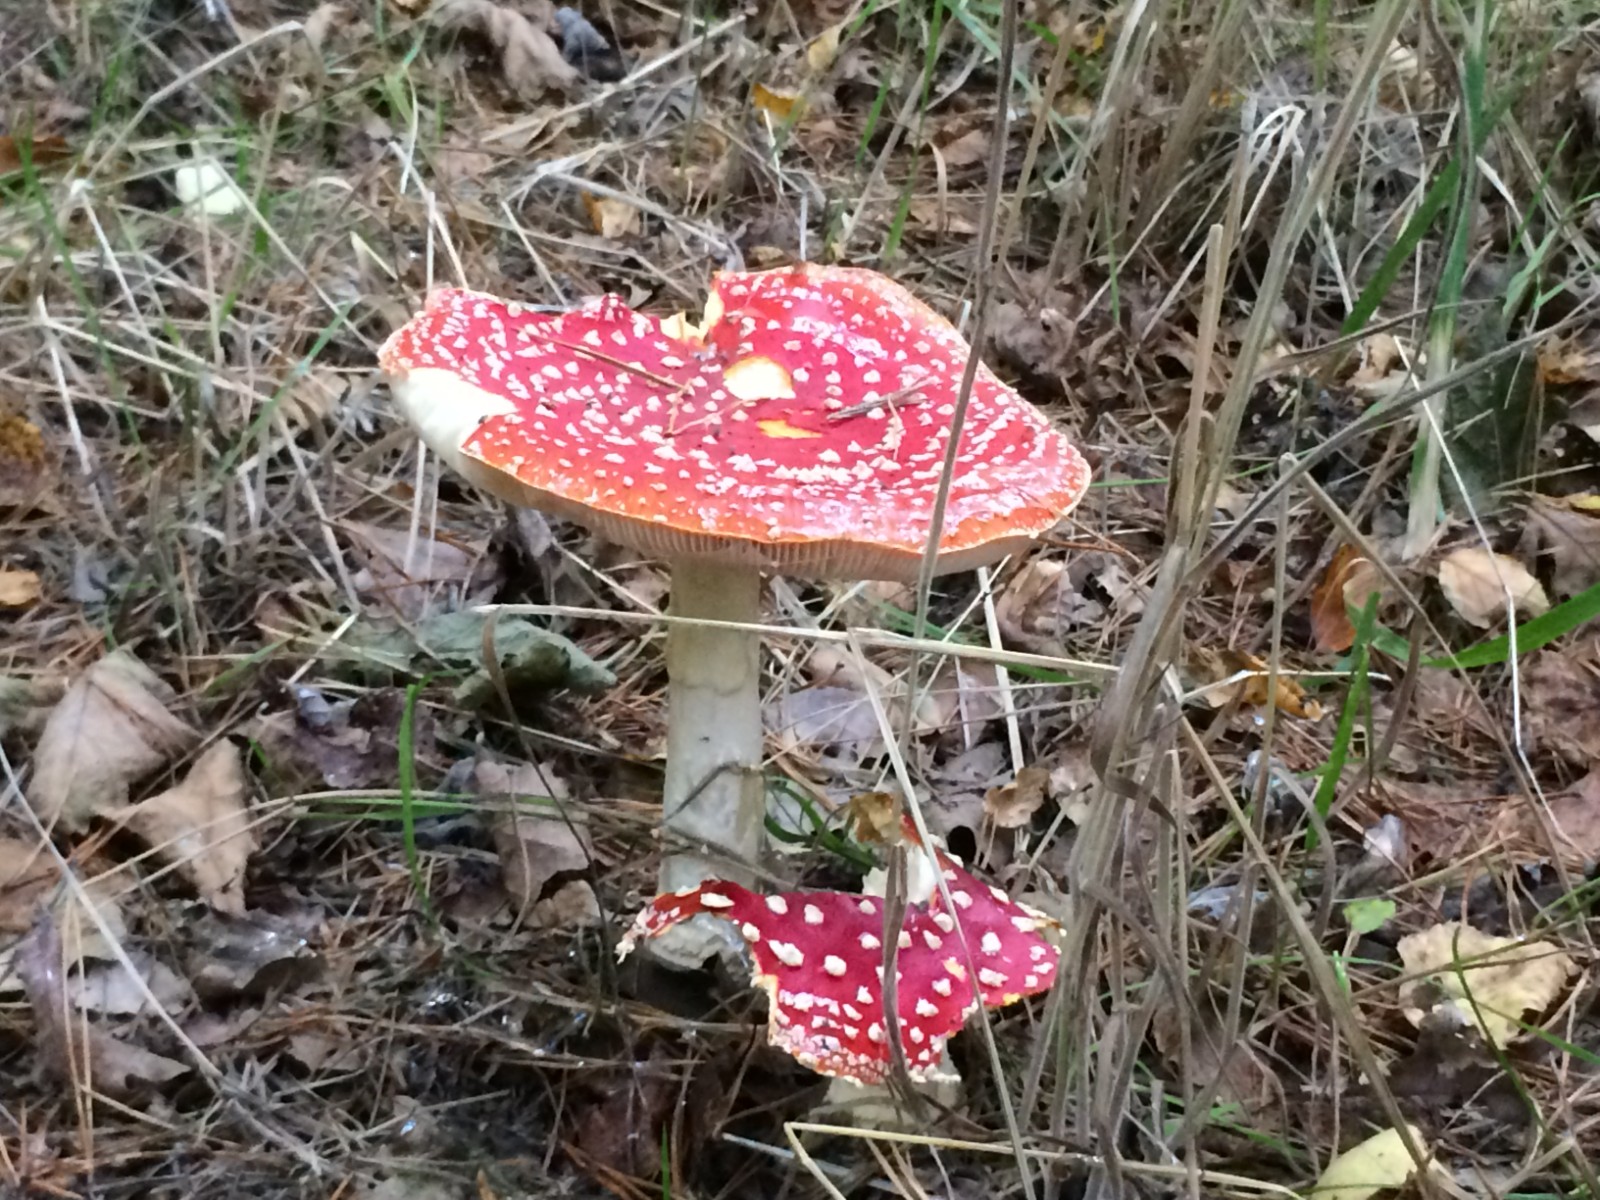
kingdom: Fungi
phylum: Basidiomycota
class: Agaricomycetes
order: Agaricales
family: Amanitaceae
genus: Amanita
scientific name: Amanita muscaria
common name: rød fluesvamp
